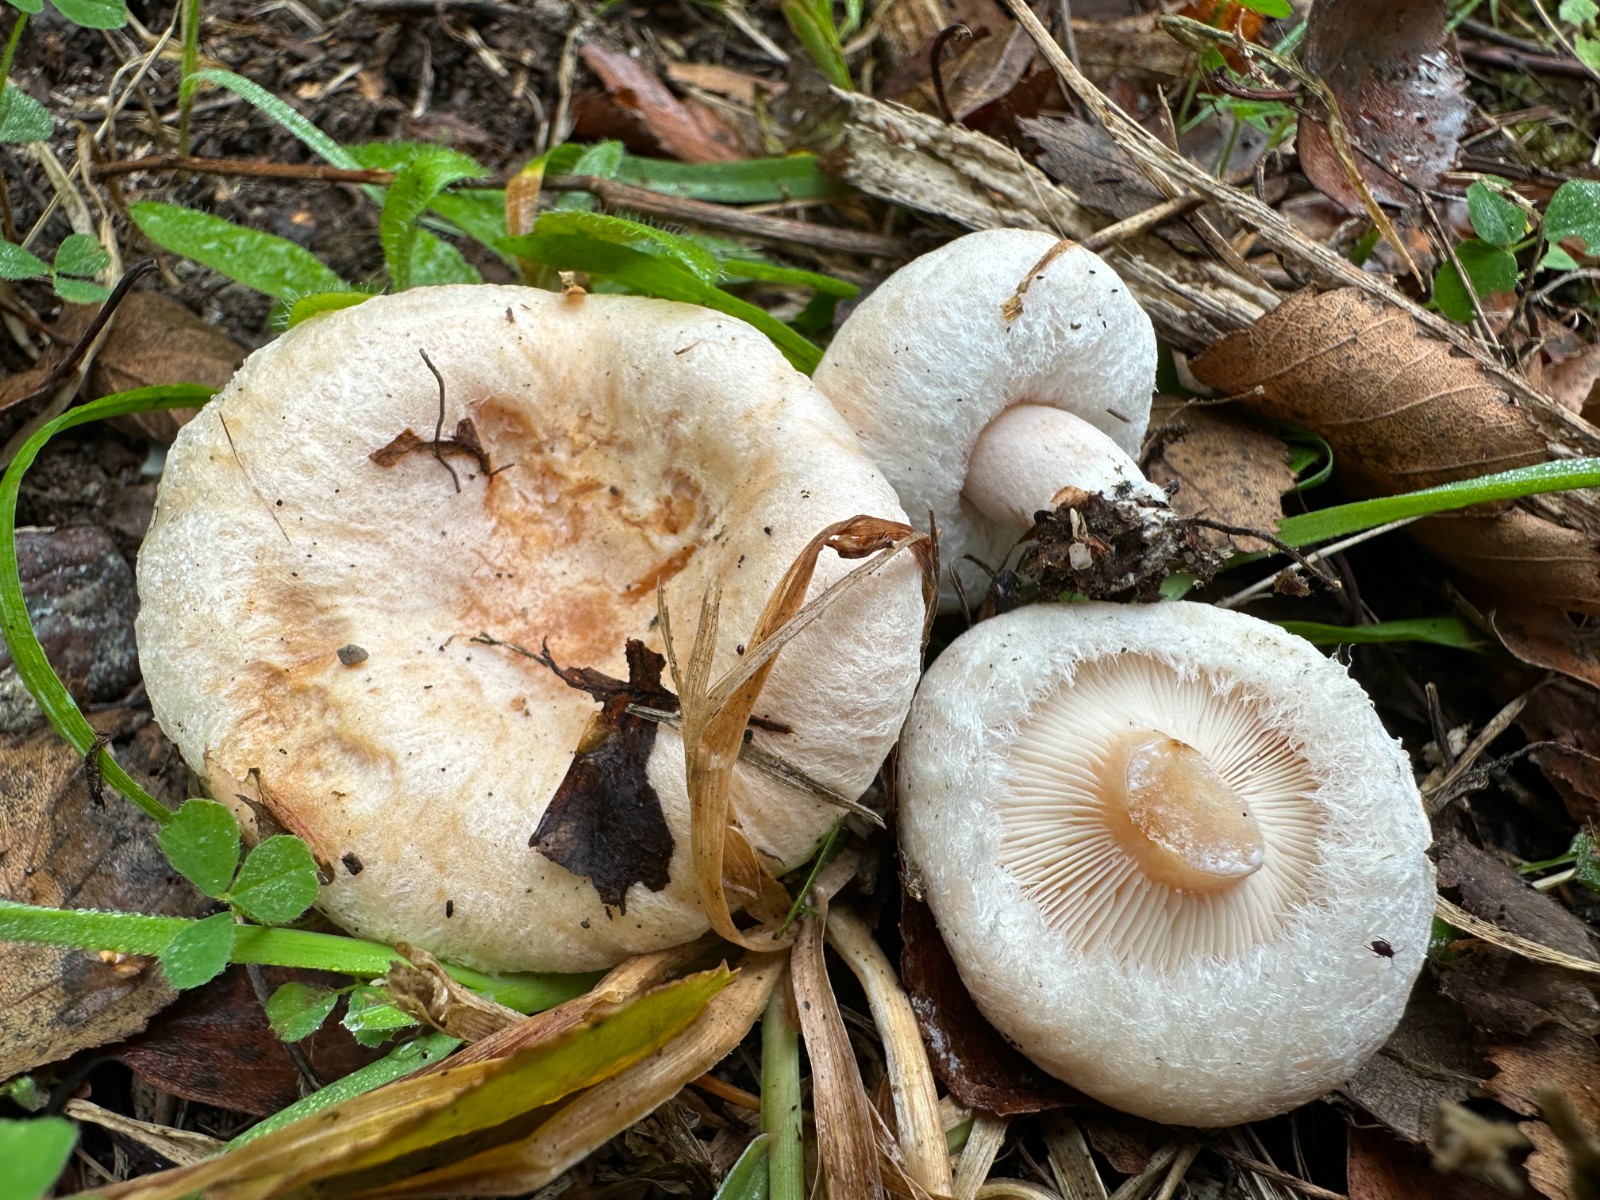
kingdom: Fungi
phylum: Basidiomycota
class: Agaricomycetes
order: Russulales
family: Russulaceae
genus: Lactarius
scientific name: Lactarius torminosus
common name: skægget mælkehat
